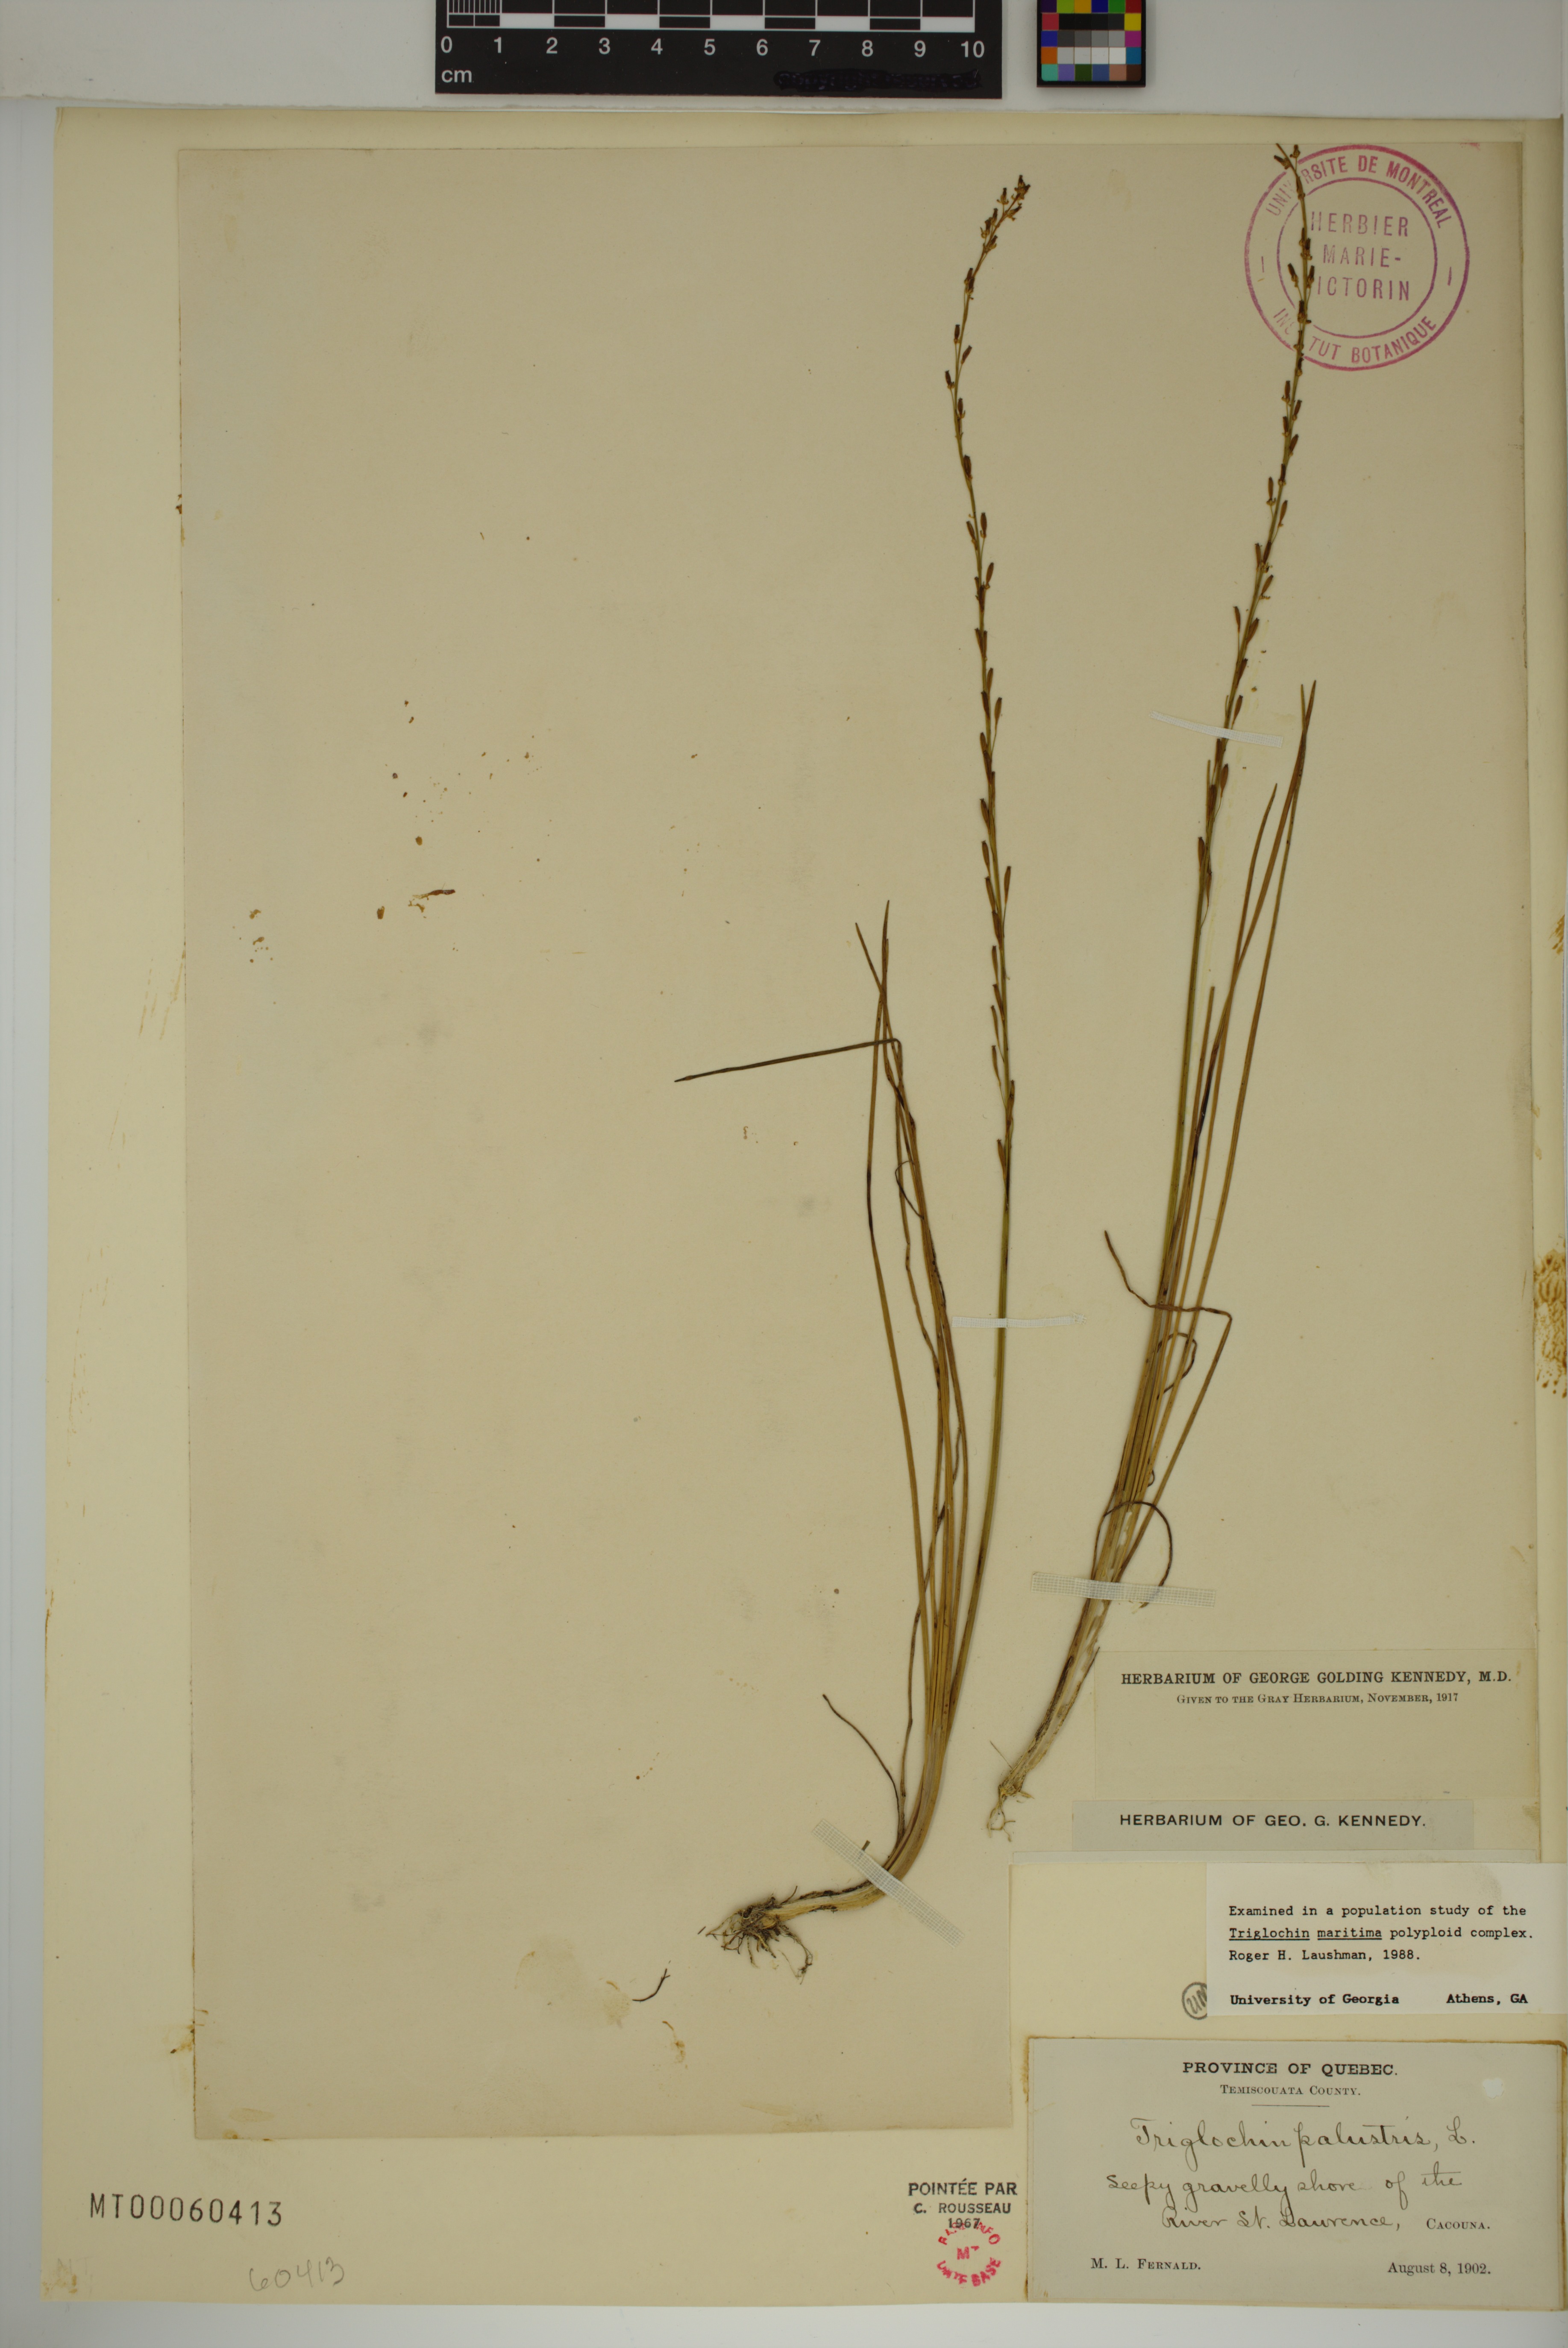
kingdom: Plantae
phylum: Tracheophyta
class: Liliopsida
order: Alismatales
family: Juncaginaceae
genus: Triglochin
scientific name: Triglochin palustris
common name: Marsh arrowgrass
